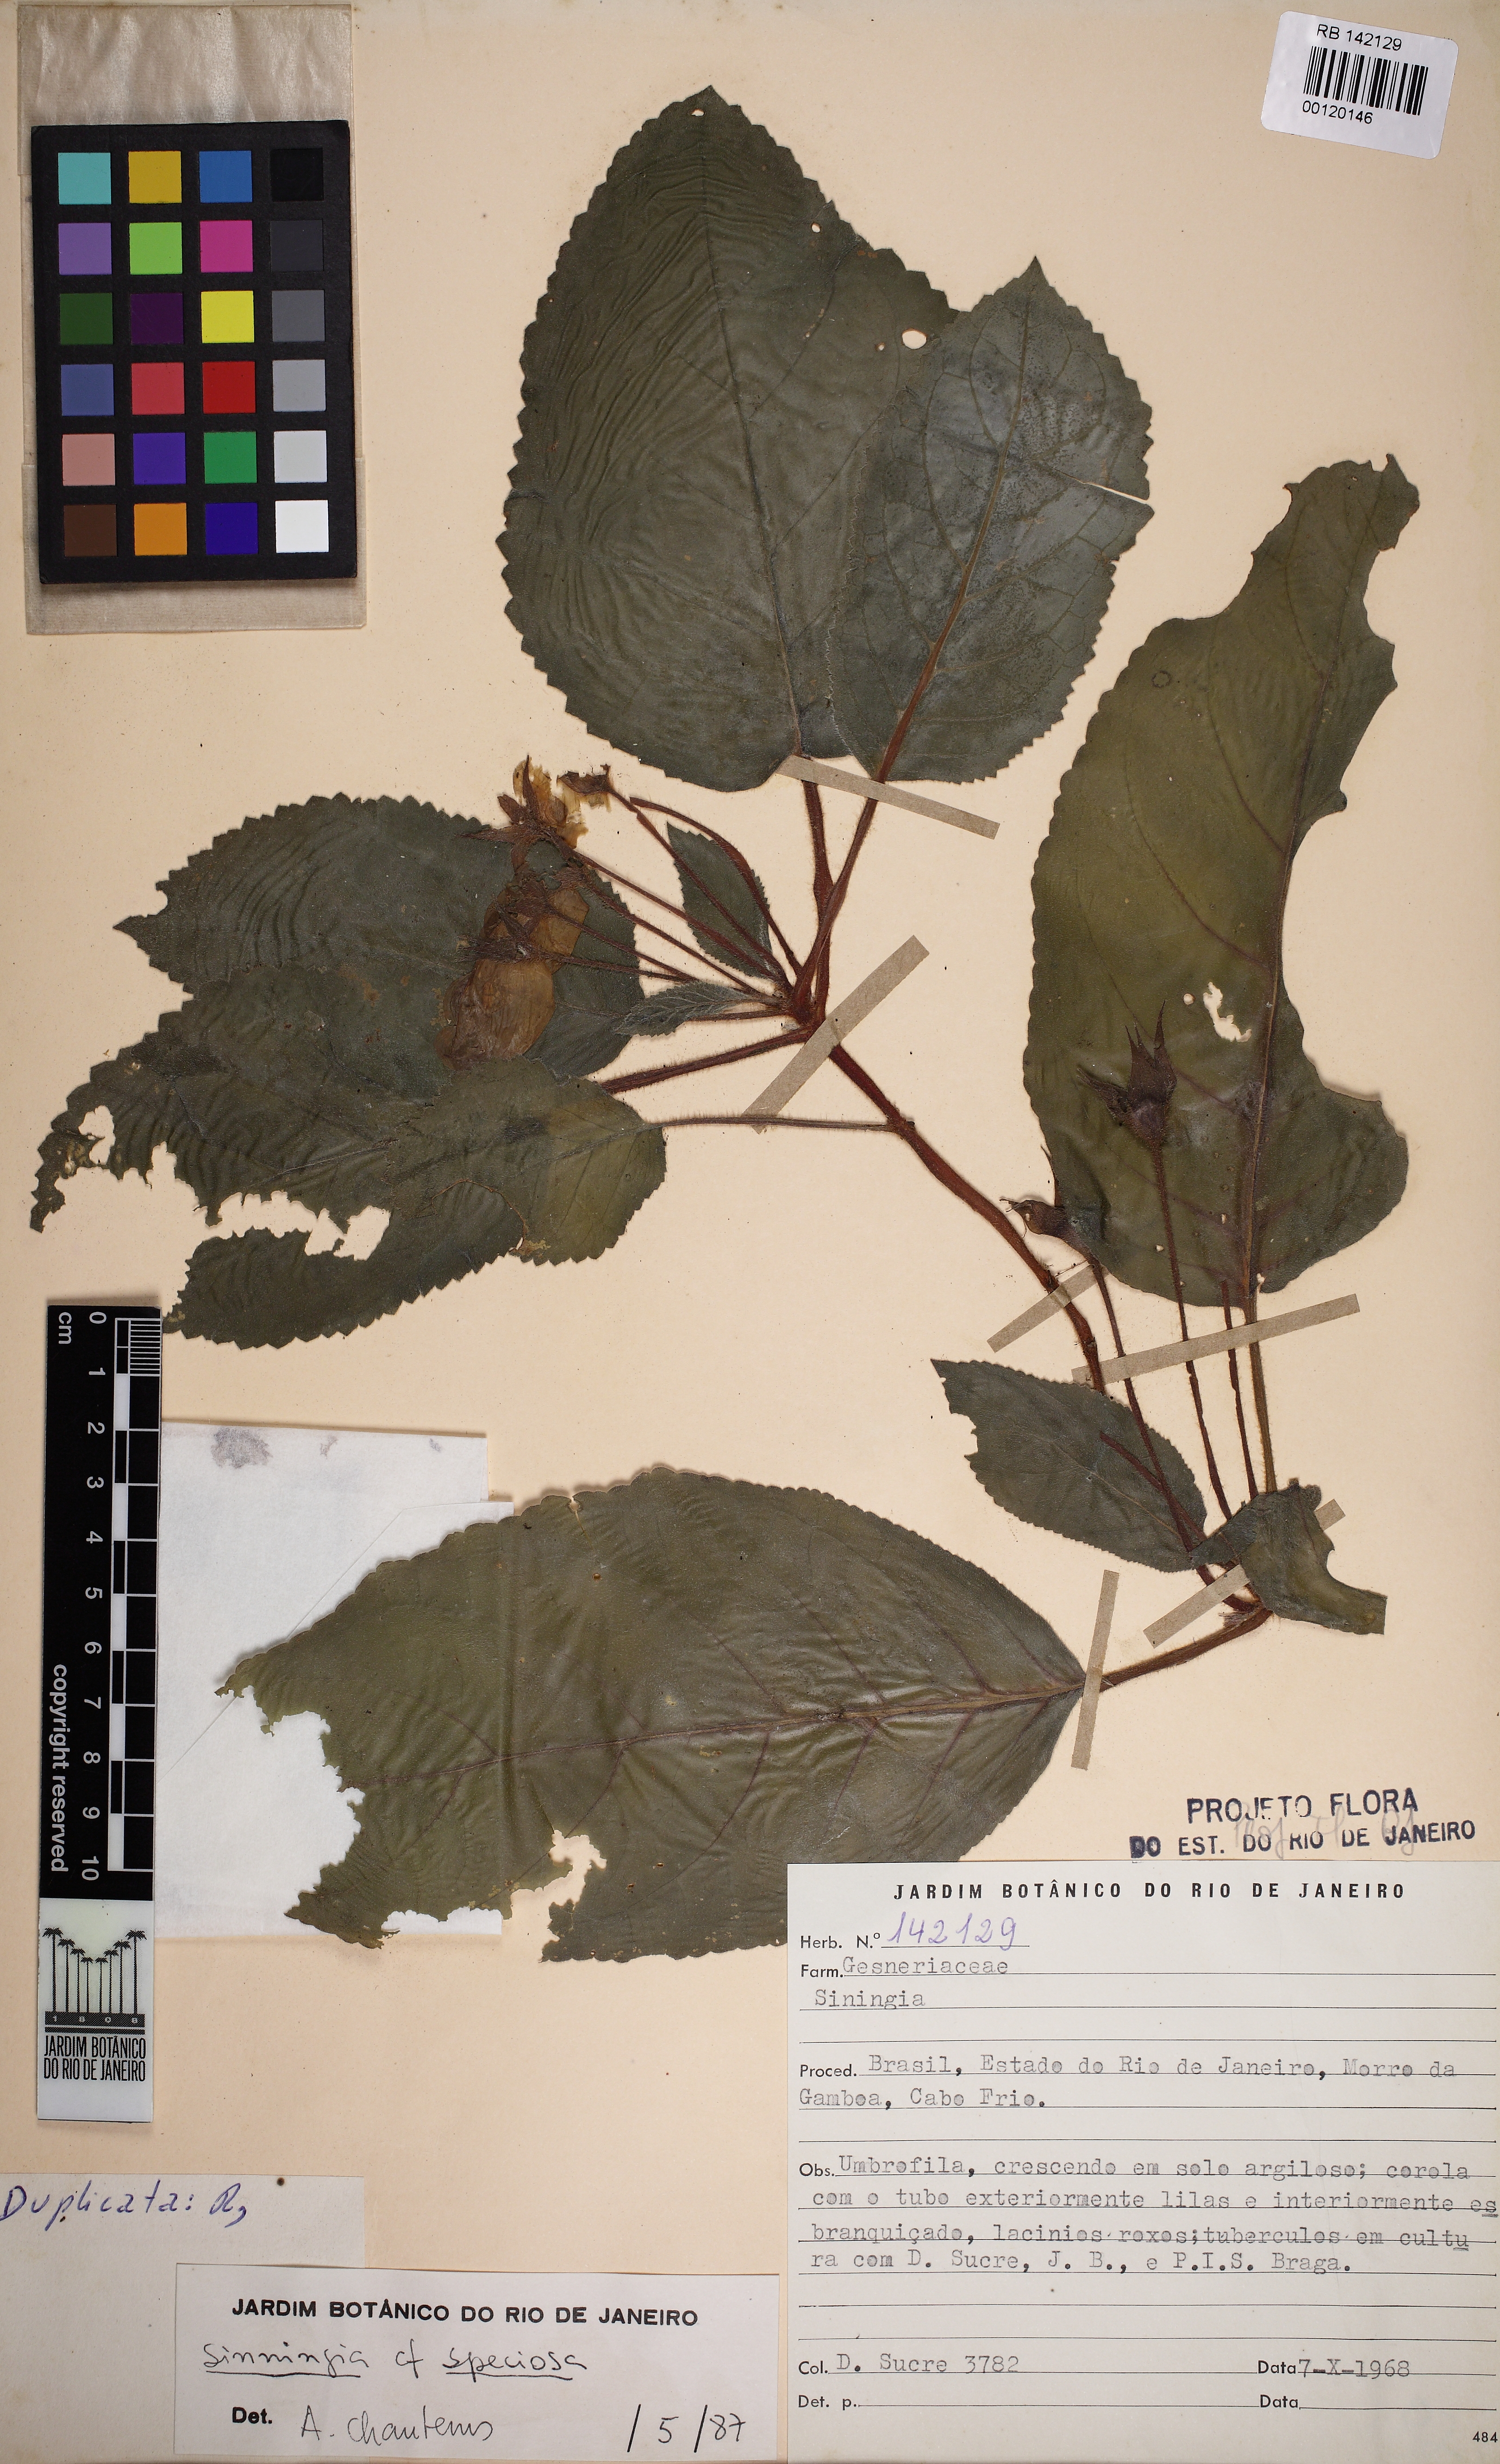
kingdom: Plantae
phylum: Tracheophyta
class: Magnoliopsida
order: Lamiales
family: Gesneriaceae
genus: Sinningia
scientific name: Sinningia
